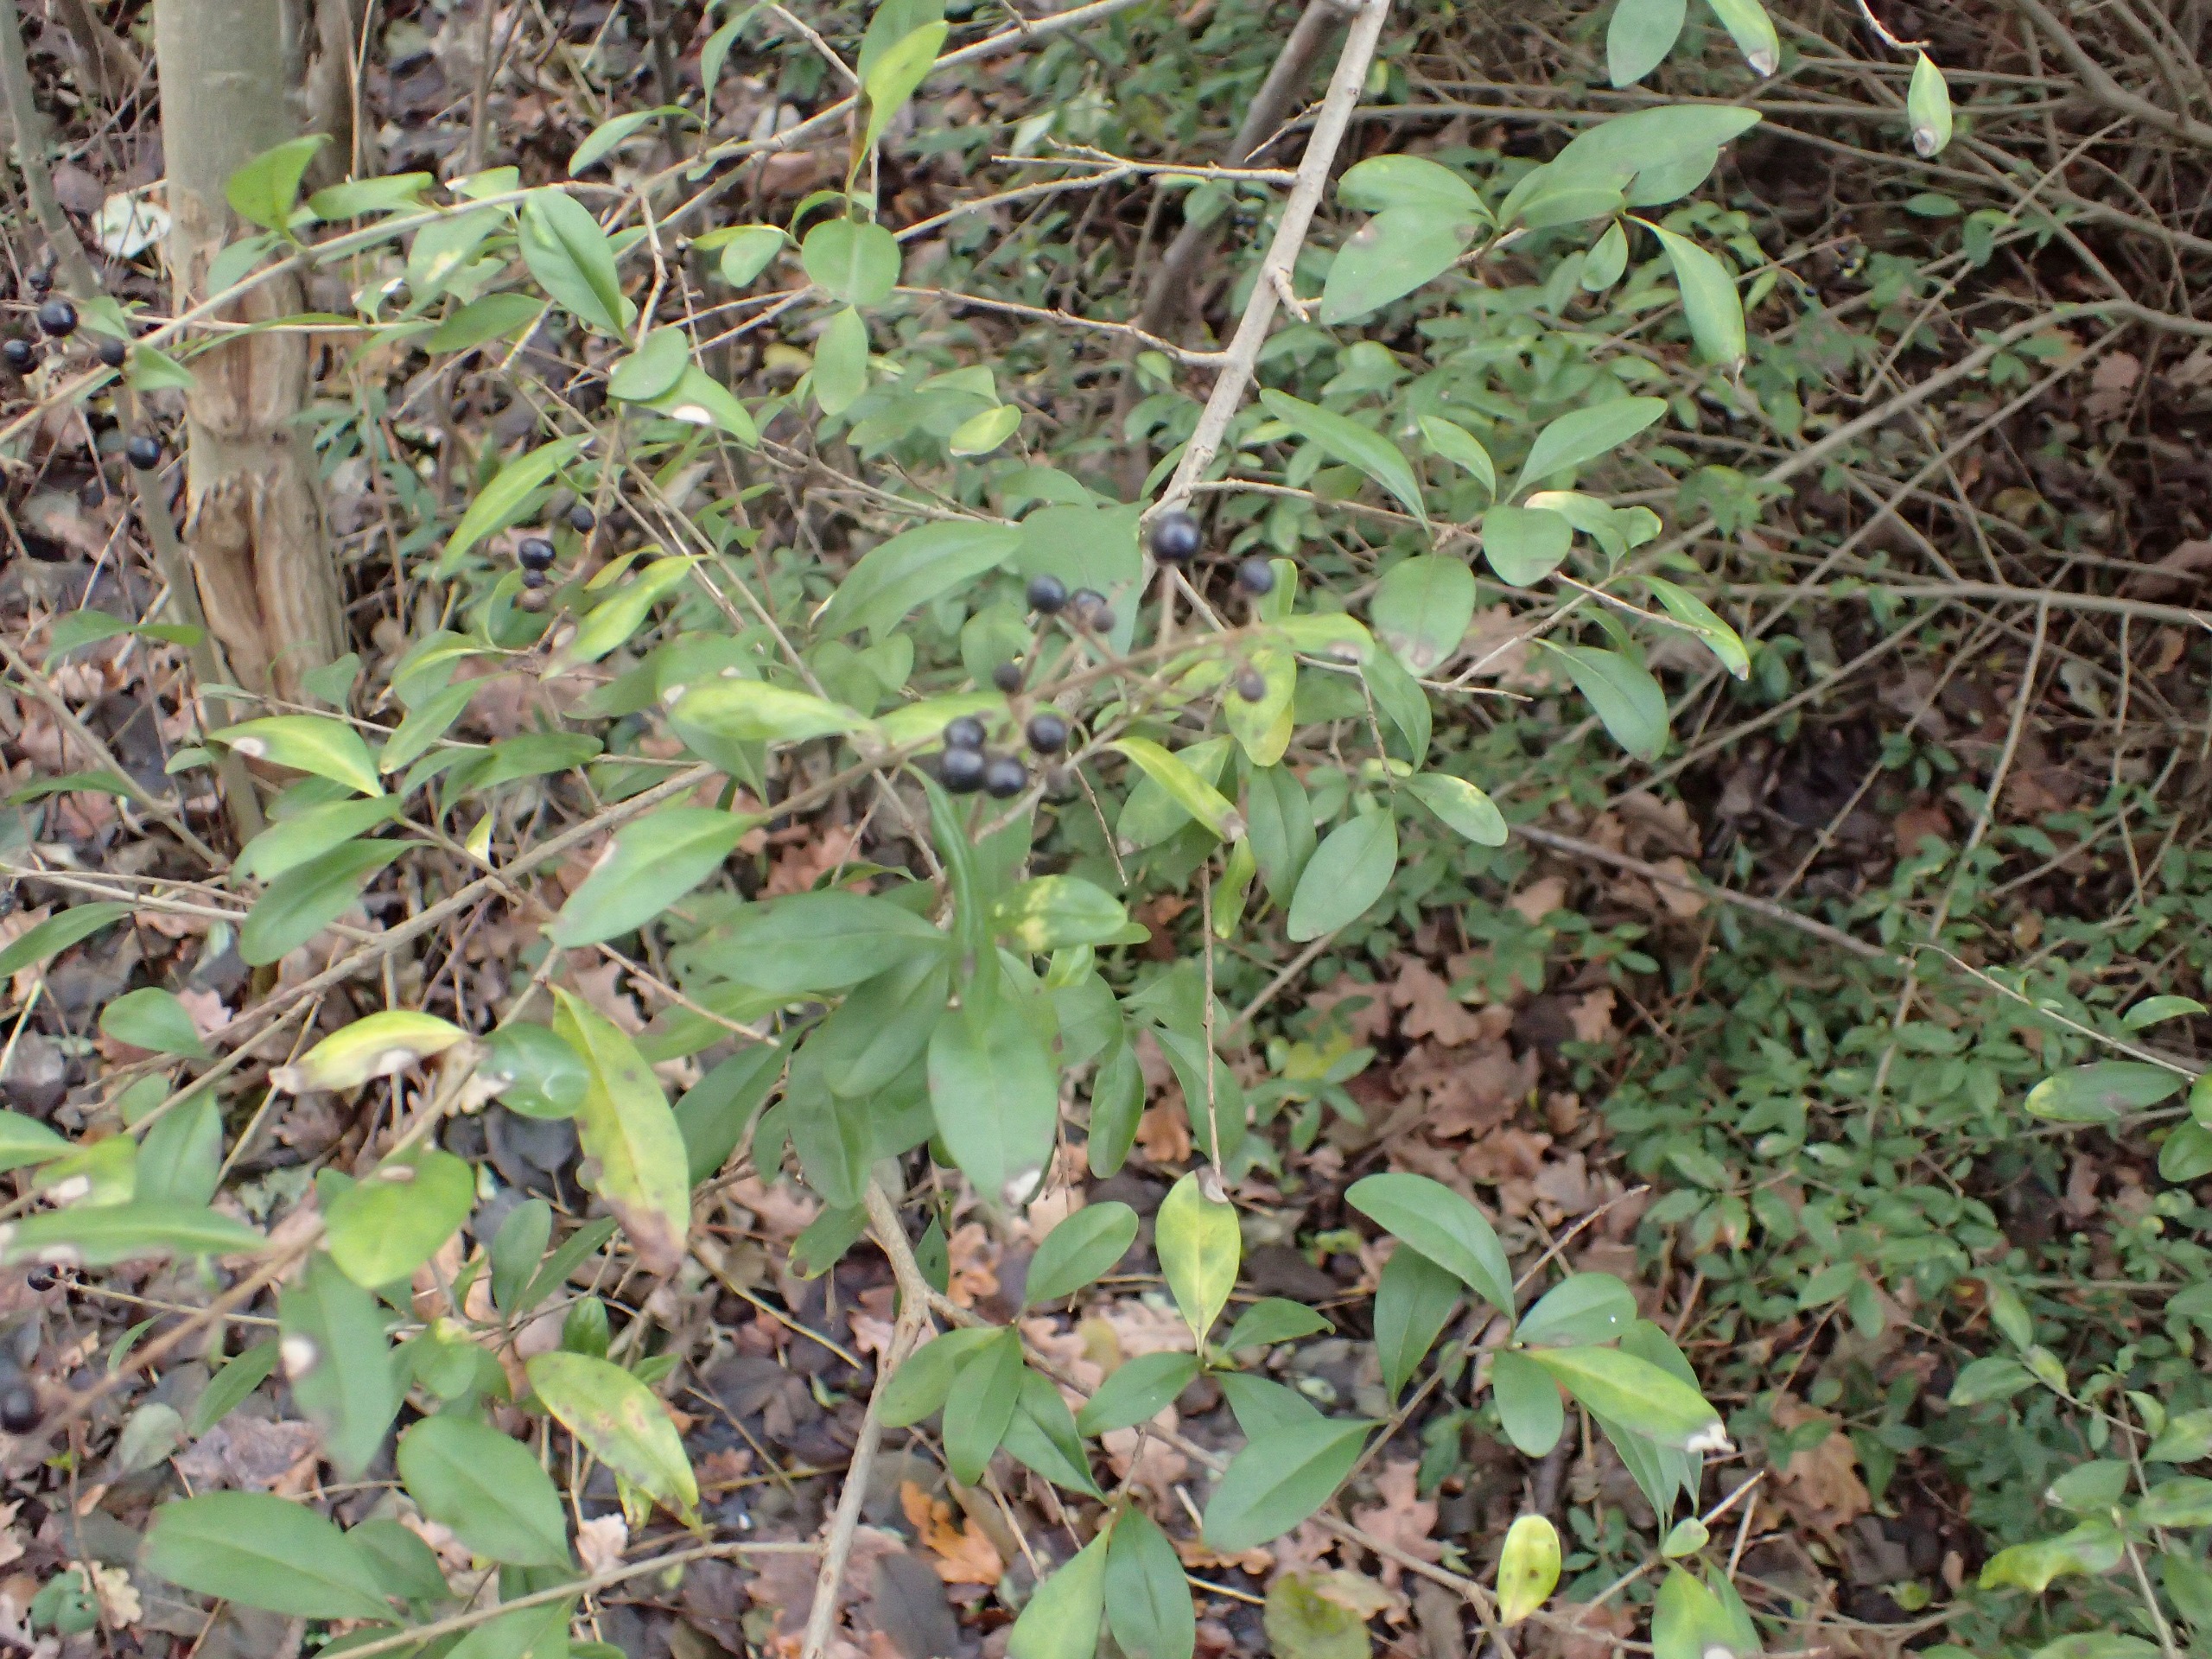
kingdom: Plantae
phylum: Tracheophyta
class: Magnoliopsida
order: Lamiales
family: Oleaceae
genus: Ligustrum
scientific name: Ligustrum vulgare
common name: Liguster
